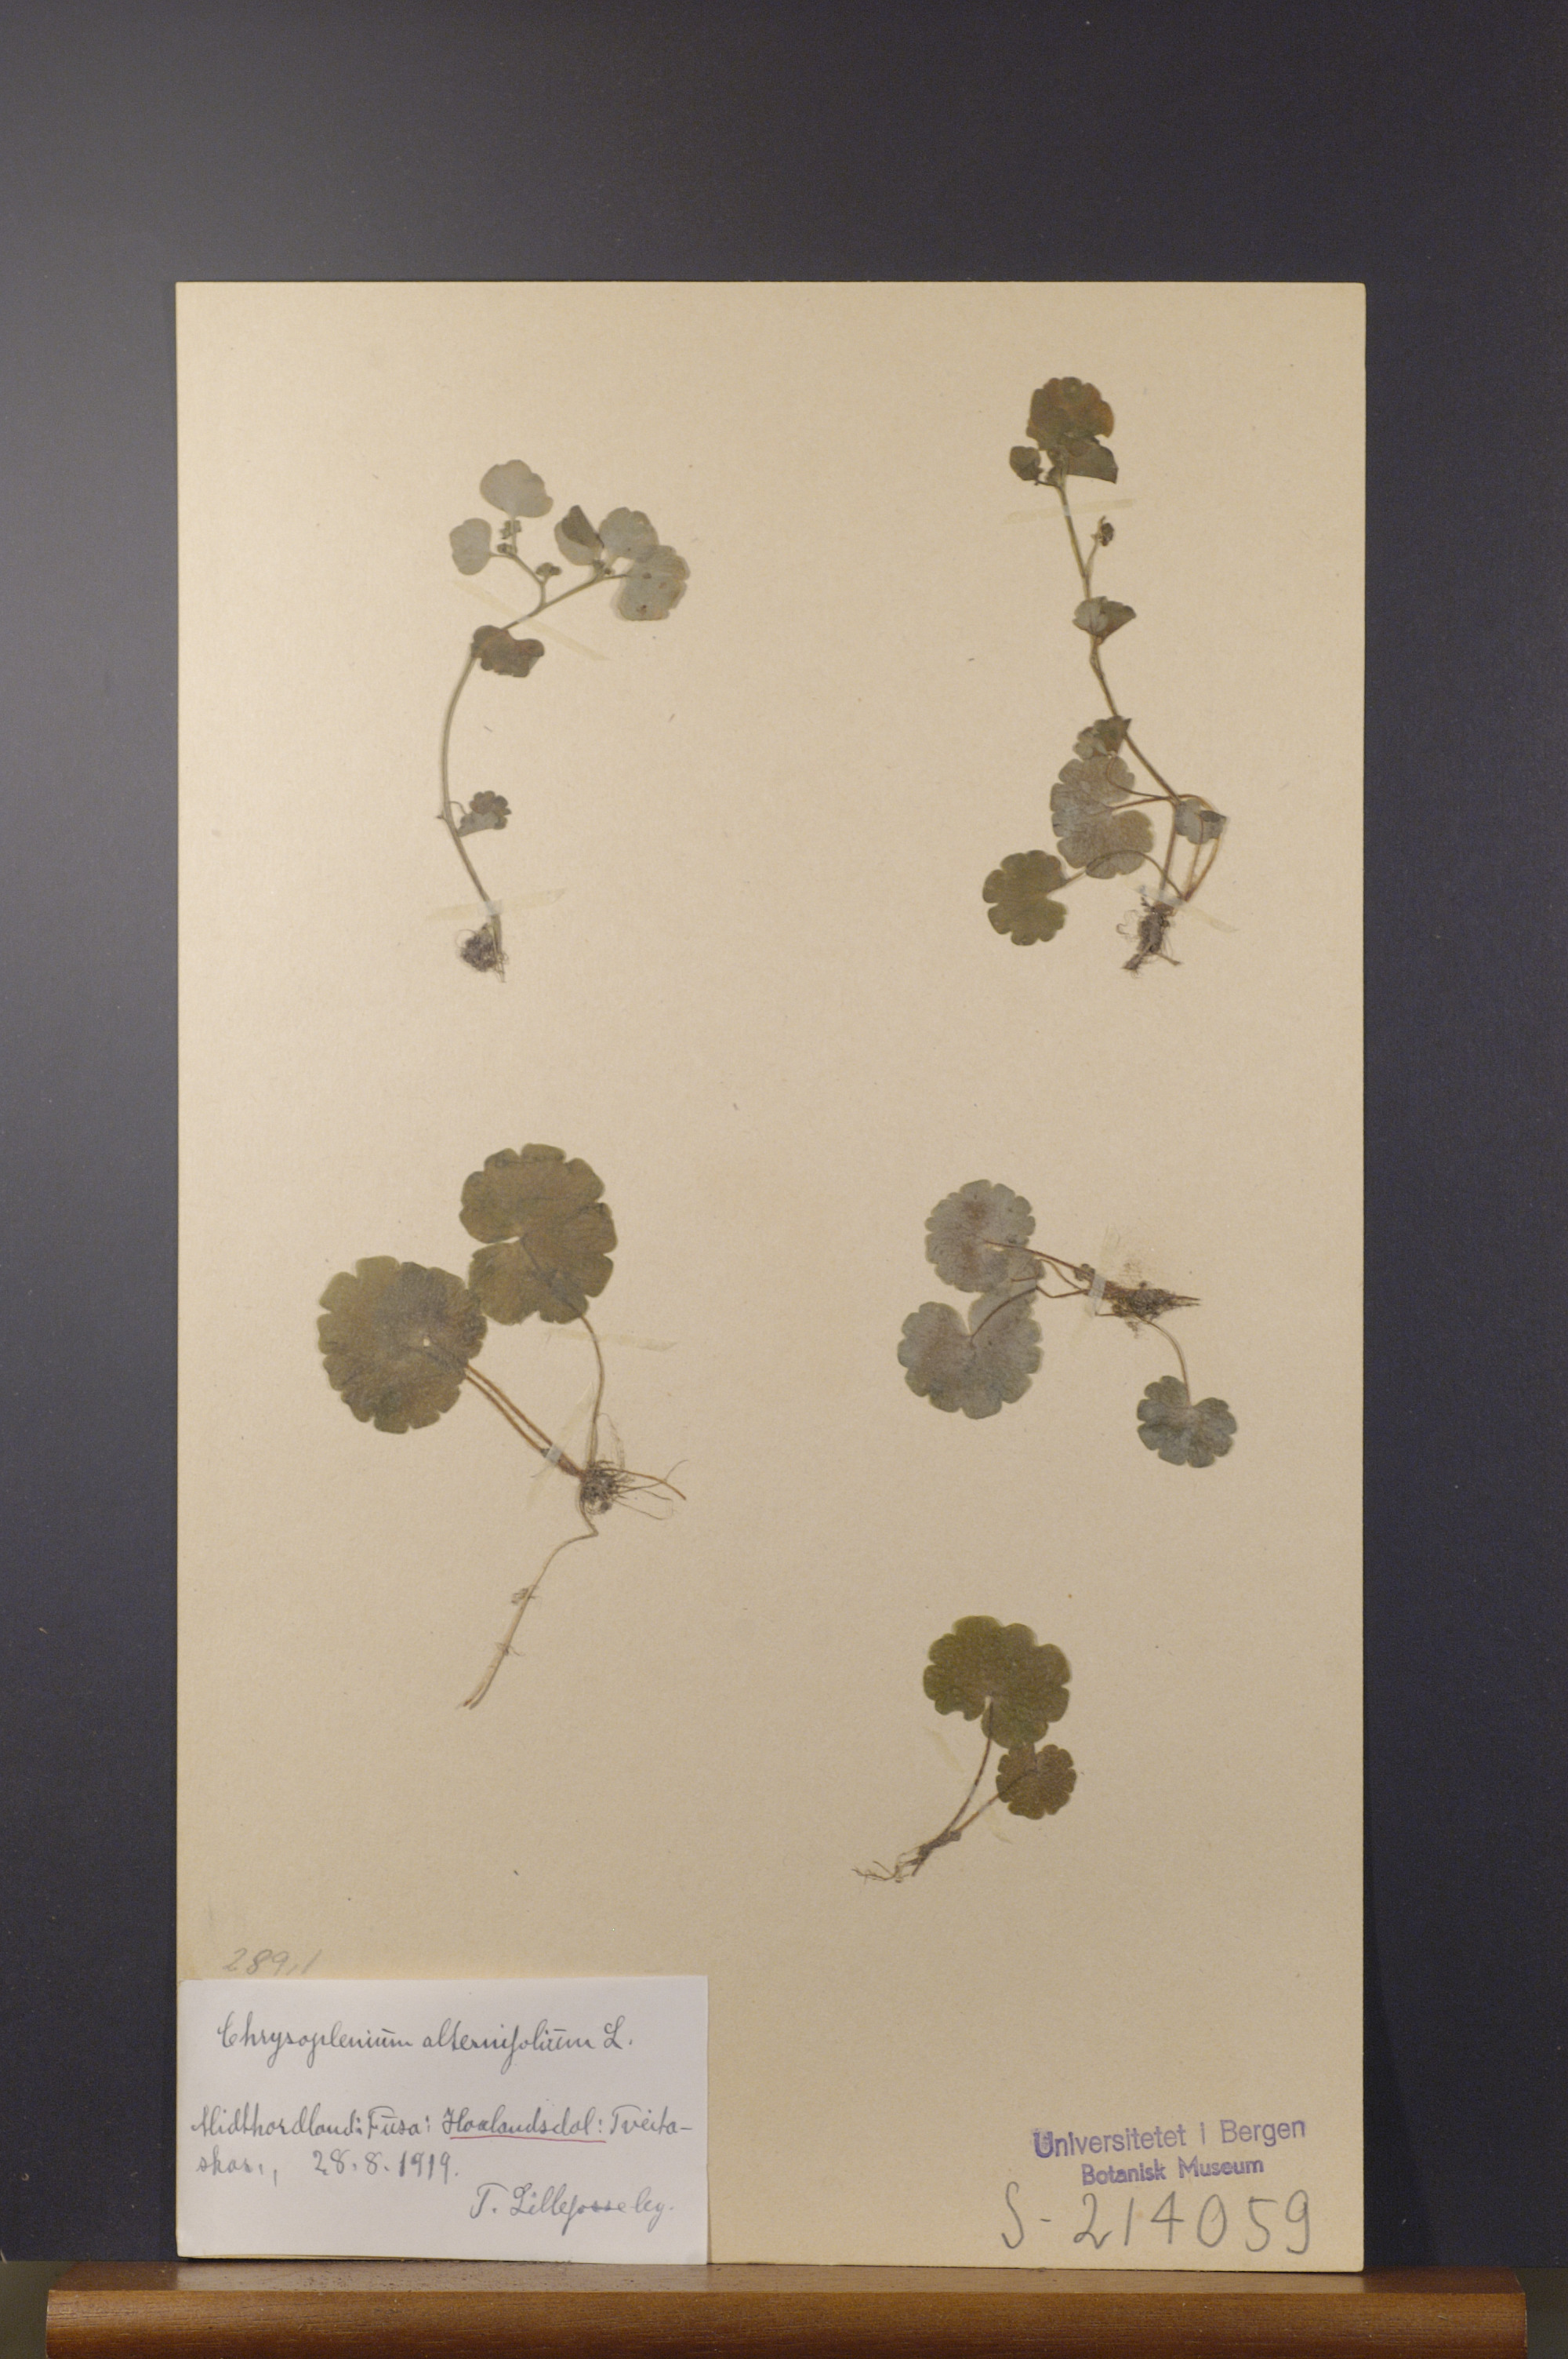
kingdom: Plantae
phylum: Tracheophyta
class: Magnoliopsida
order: Saxifragales
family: Saxifragaceae
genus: Chrysosplenium
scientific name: Chrysosplenium alternifolium
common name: Alternate-leaved golden-saxifrage
